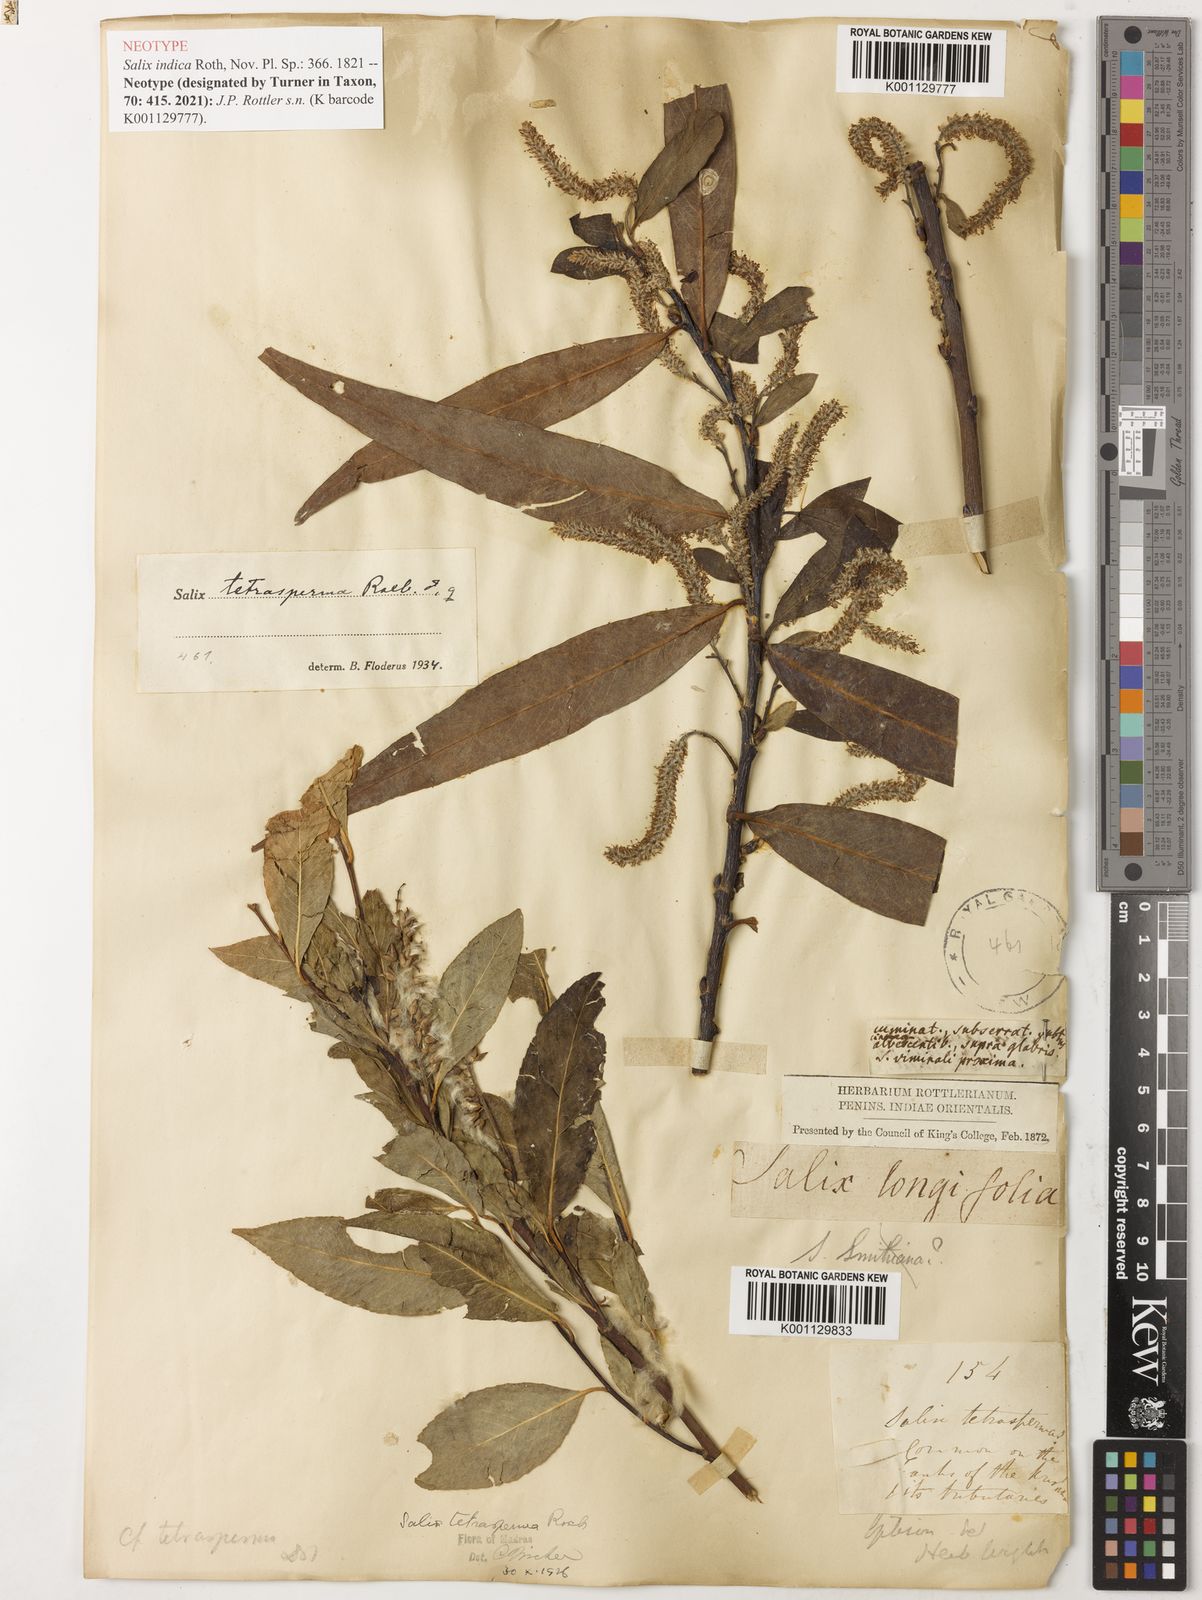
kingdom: Plantae
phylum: Tracheophyta
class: Magnoliopsida
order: Malpighiales
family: Salicaceae
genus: Salix
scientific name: Salix tetrasperma
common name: Indian willow
